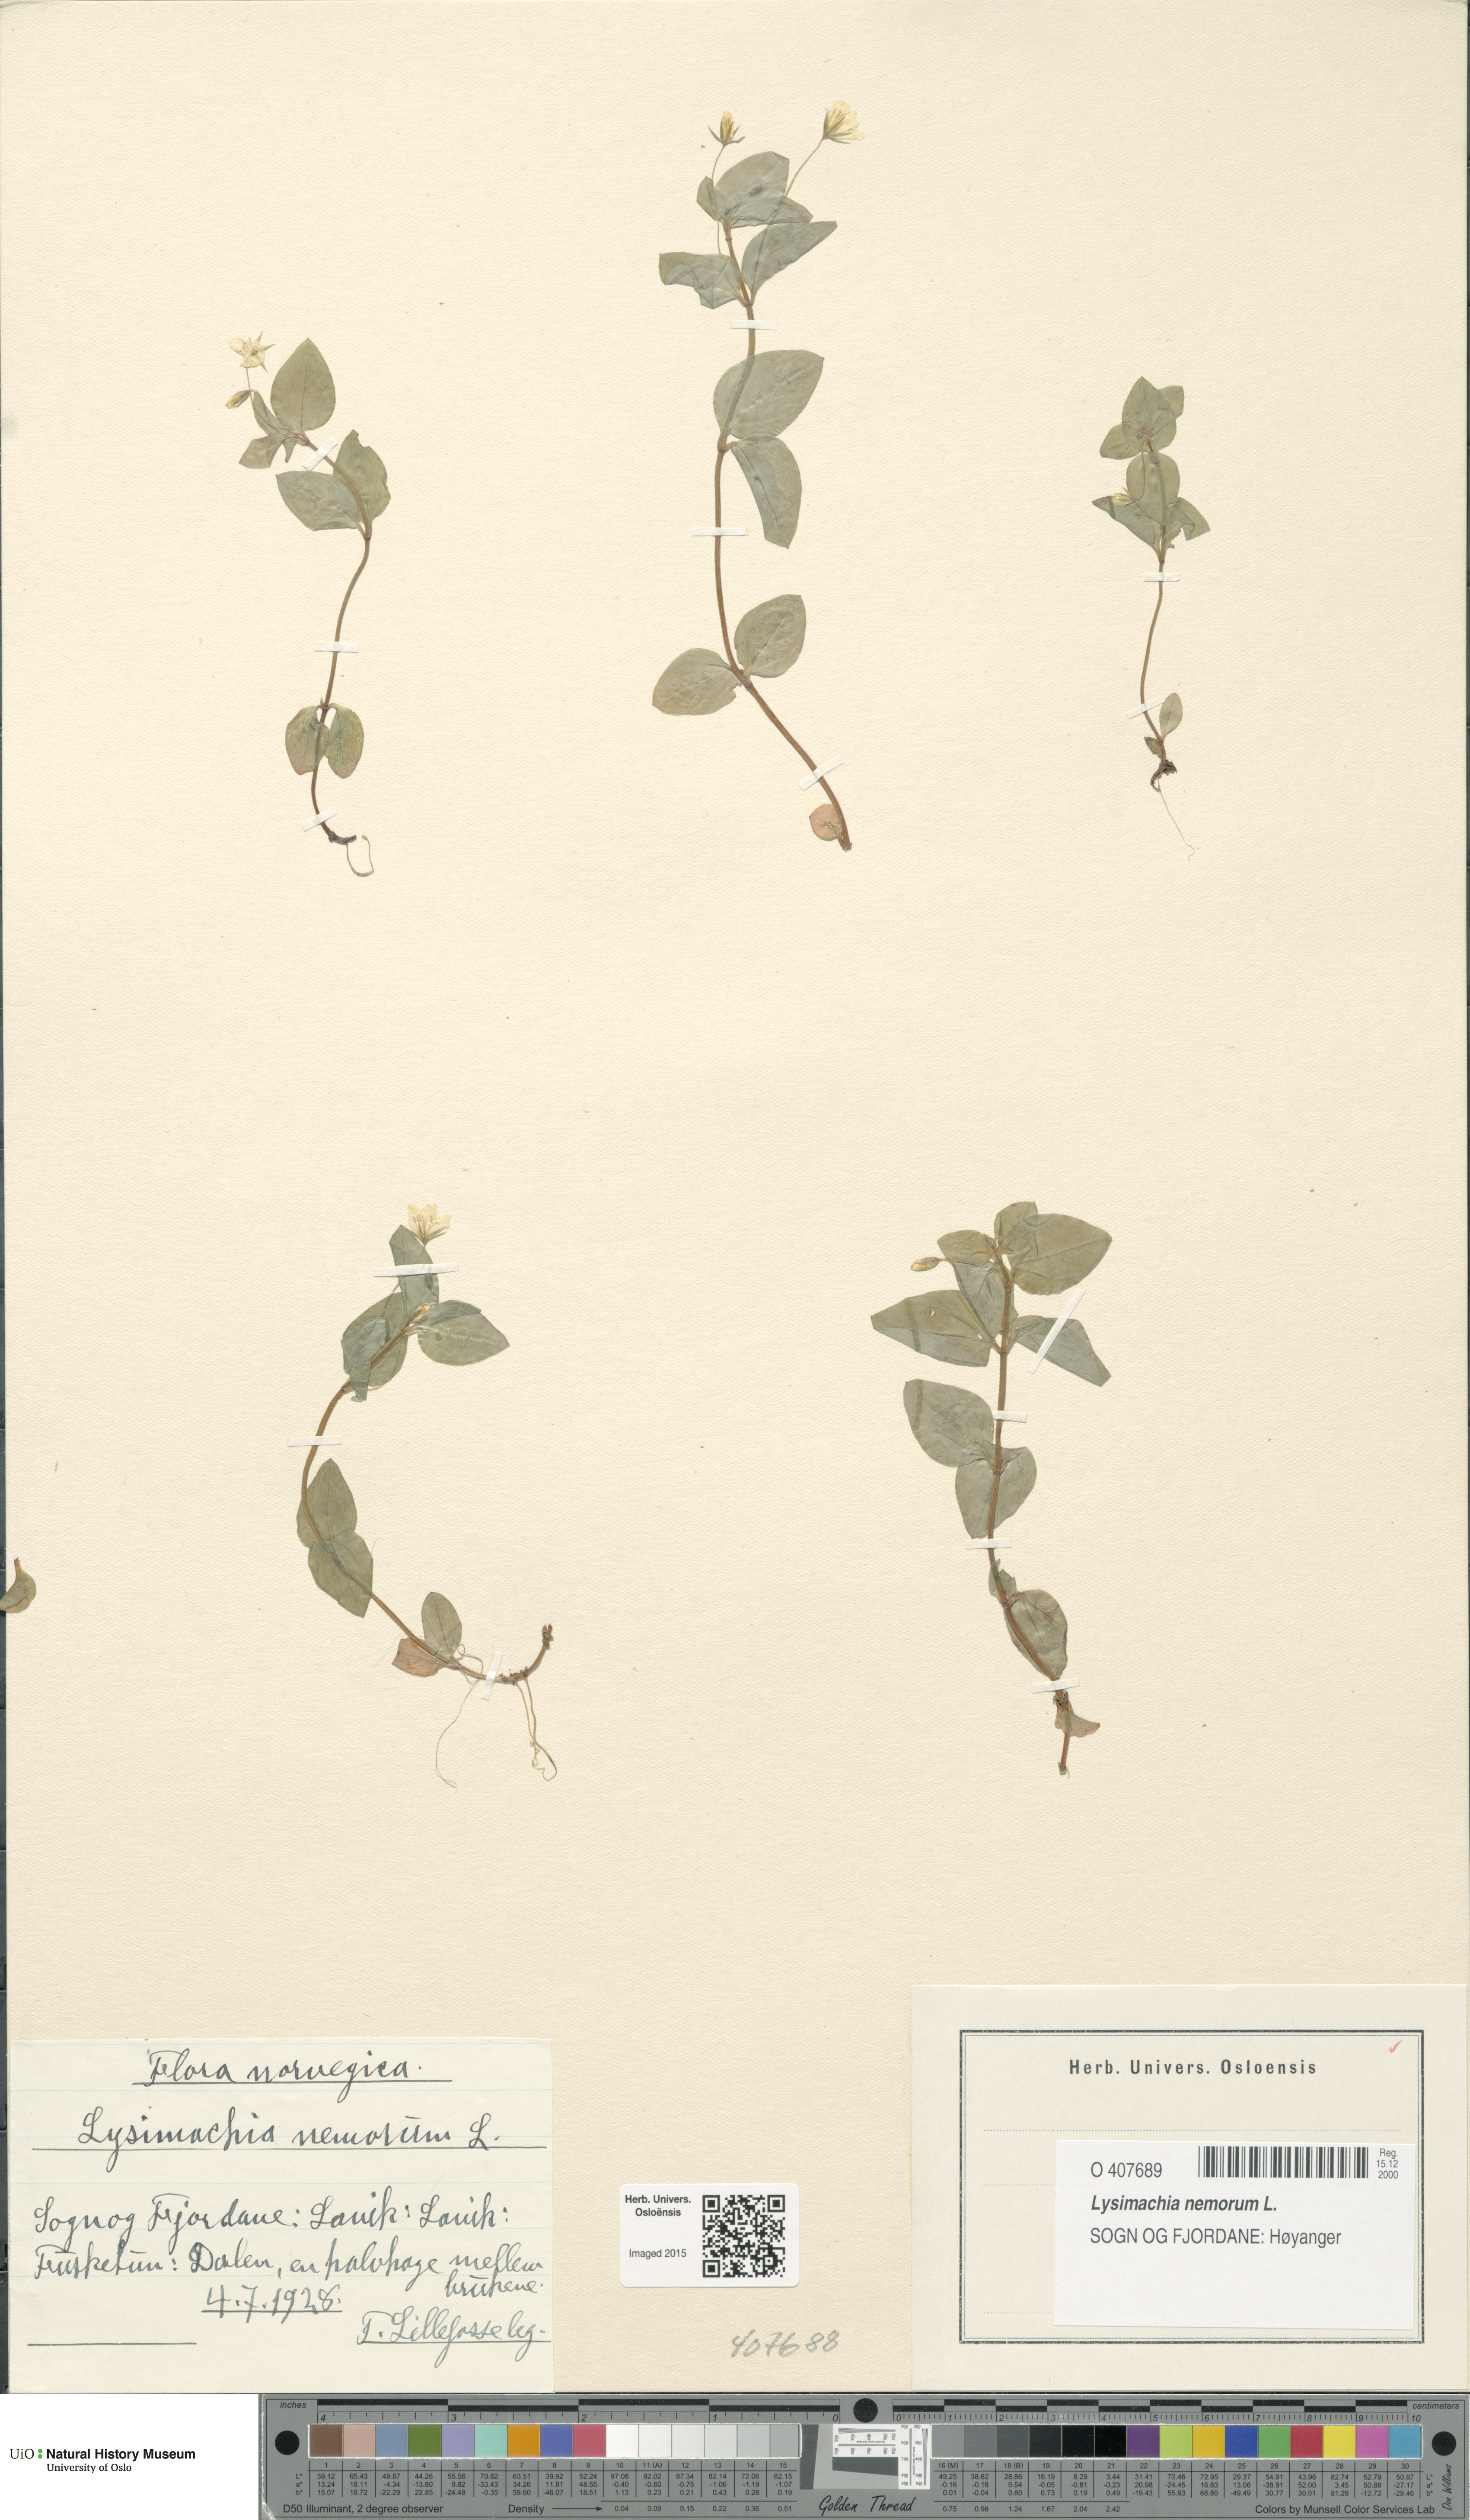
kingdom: Plantae
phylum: Tracheophyta
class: Magnoliopsida
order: Ericales
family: Primulaceae
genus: Lysimachia
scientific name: Lysimachia nemorum
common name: Yellow pimpernel
